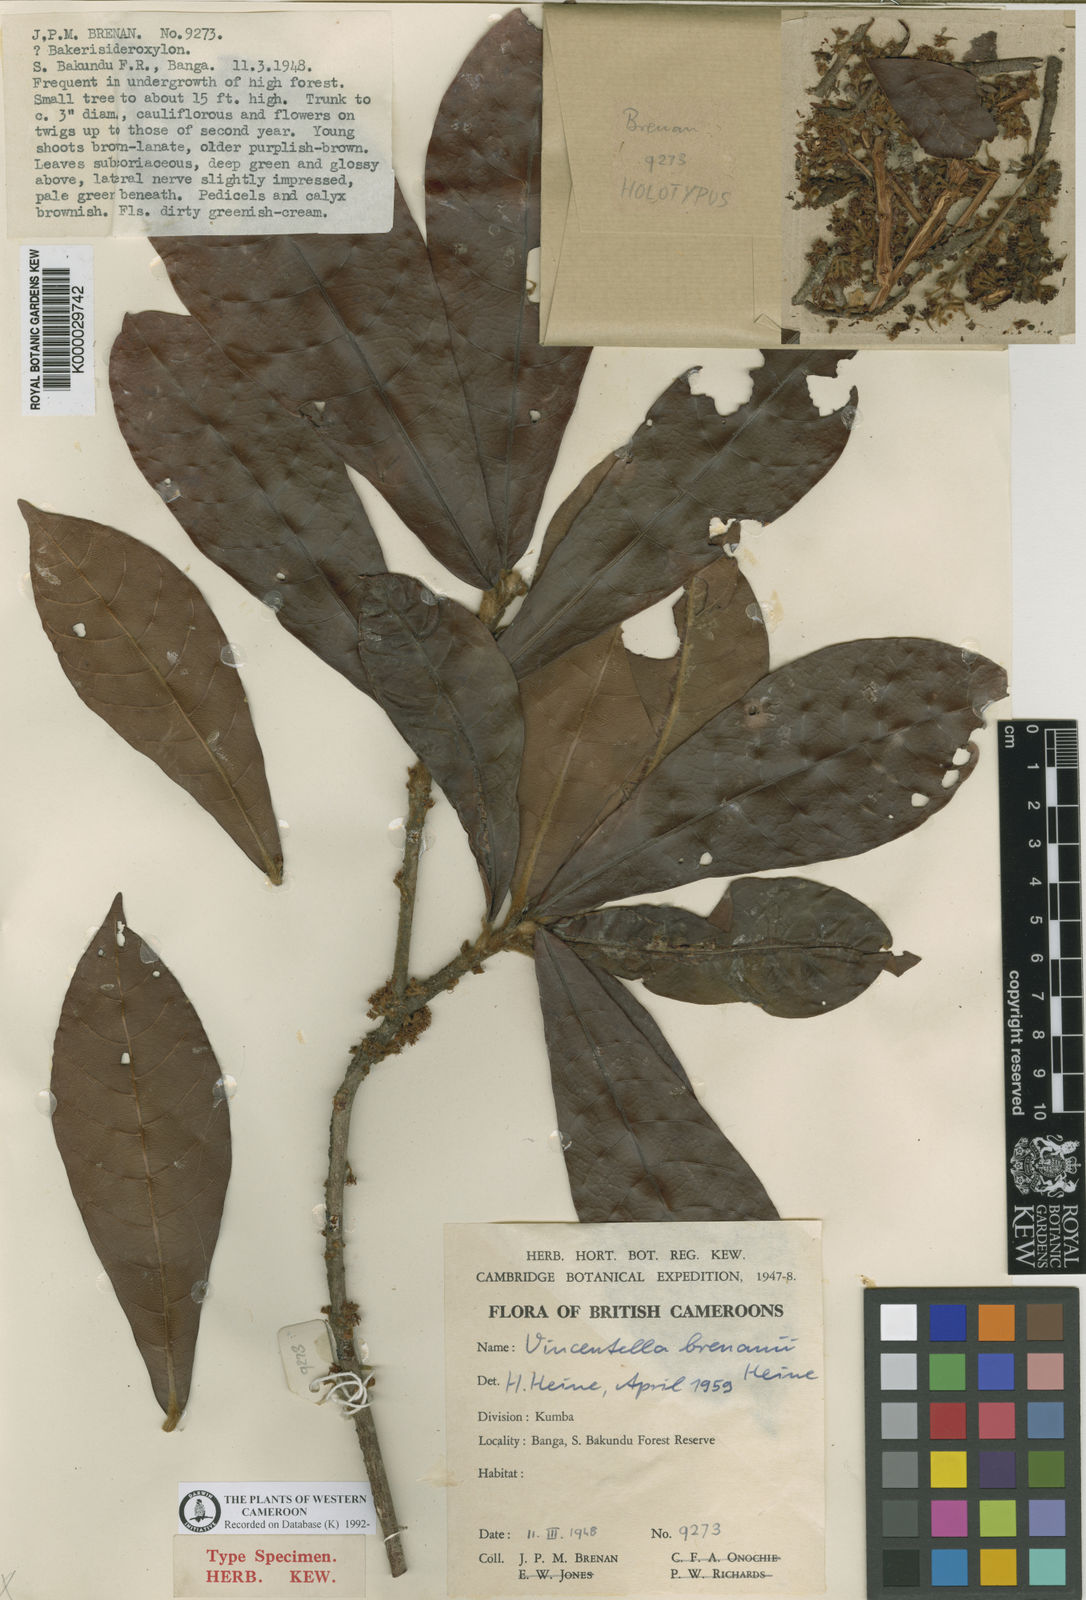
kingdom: Plantae
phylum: Tracheophyta
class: Magnoliopsida
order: Ericales
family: Sapotaceae
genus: Synsepalum
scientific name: Synsepalum brenanii
